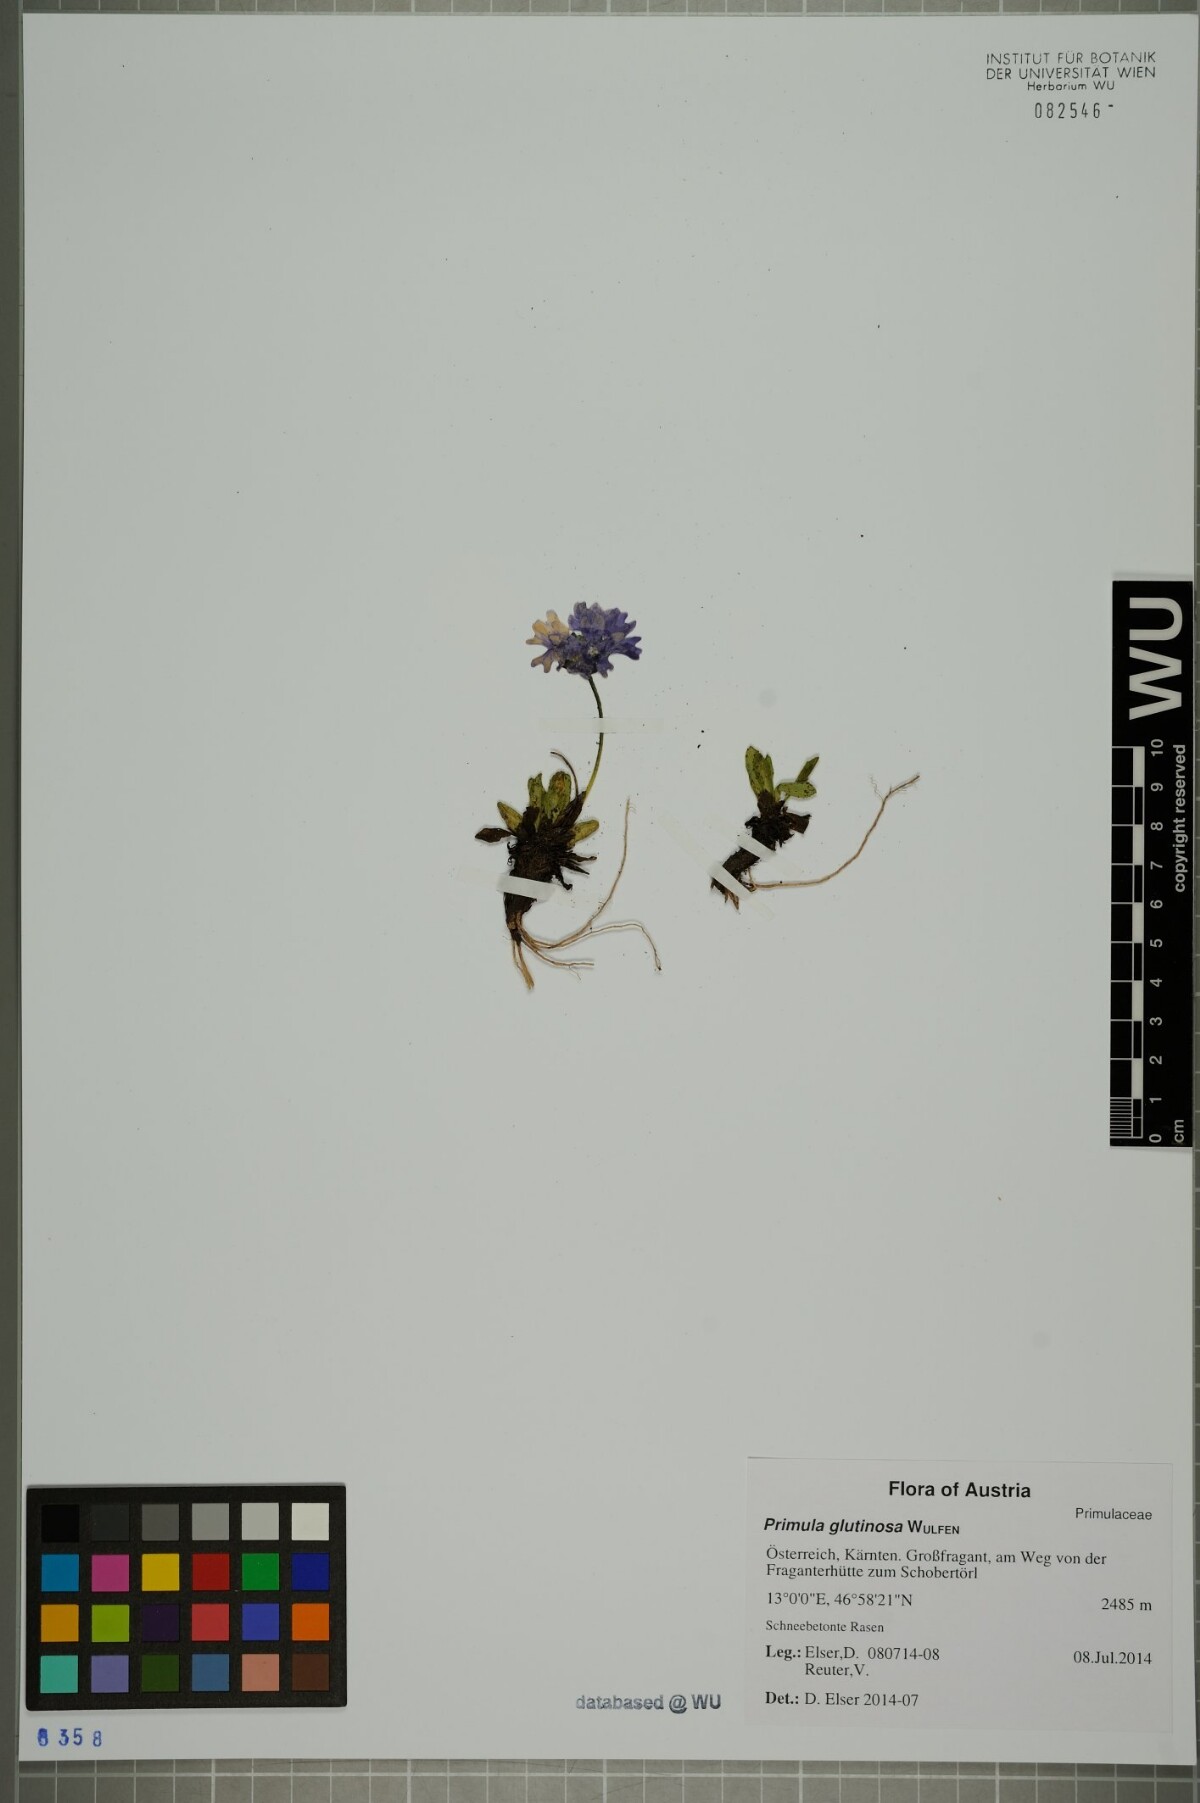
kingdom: Plantae
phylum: Tracheophyta
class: Magnoliopsida
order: Ericales
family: Primulaceae
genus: Primula
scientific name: Primula glutinosa
